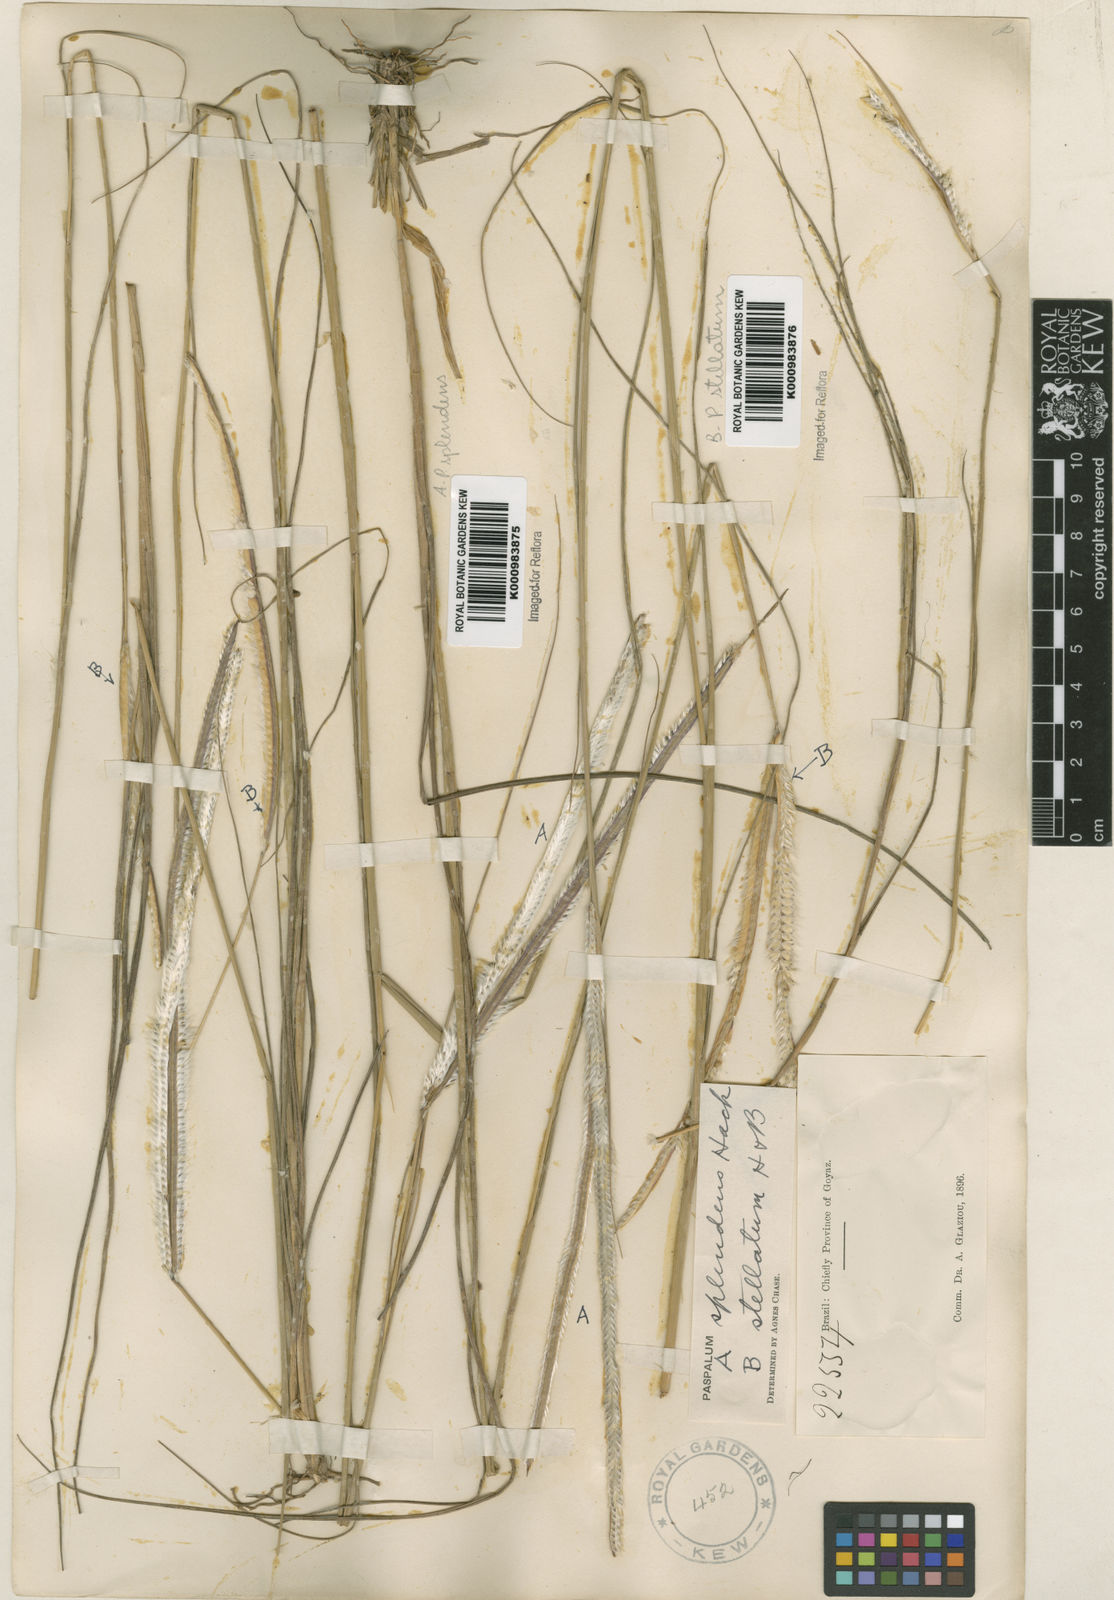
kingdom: Plantae
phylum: Tracheophyta
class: Liliopsida
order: Poales
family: Poaceae
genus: Paspalum
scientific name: Paspalum
